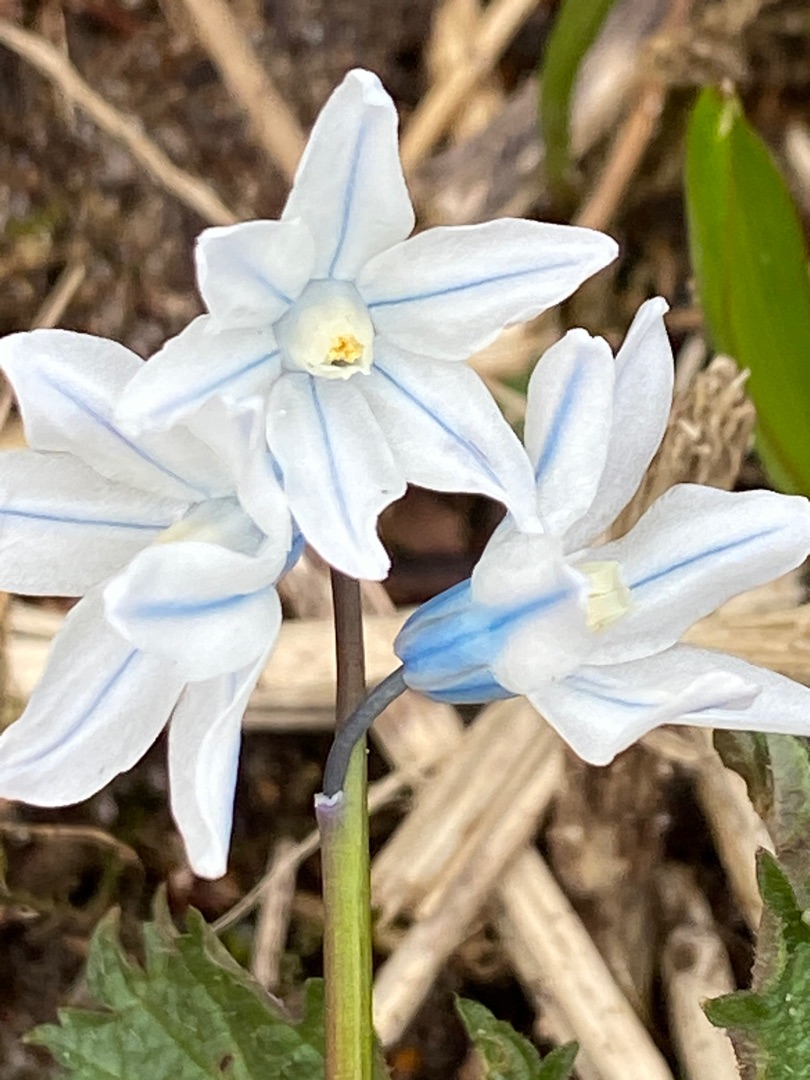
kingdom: Plantae
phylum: Tracheophyta
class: Liliopsida
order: Asparagales
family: Asparagaceae
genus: Puschkinia
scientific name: Puschkinia scilloides
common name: Porcelænshyacint
